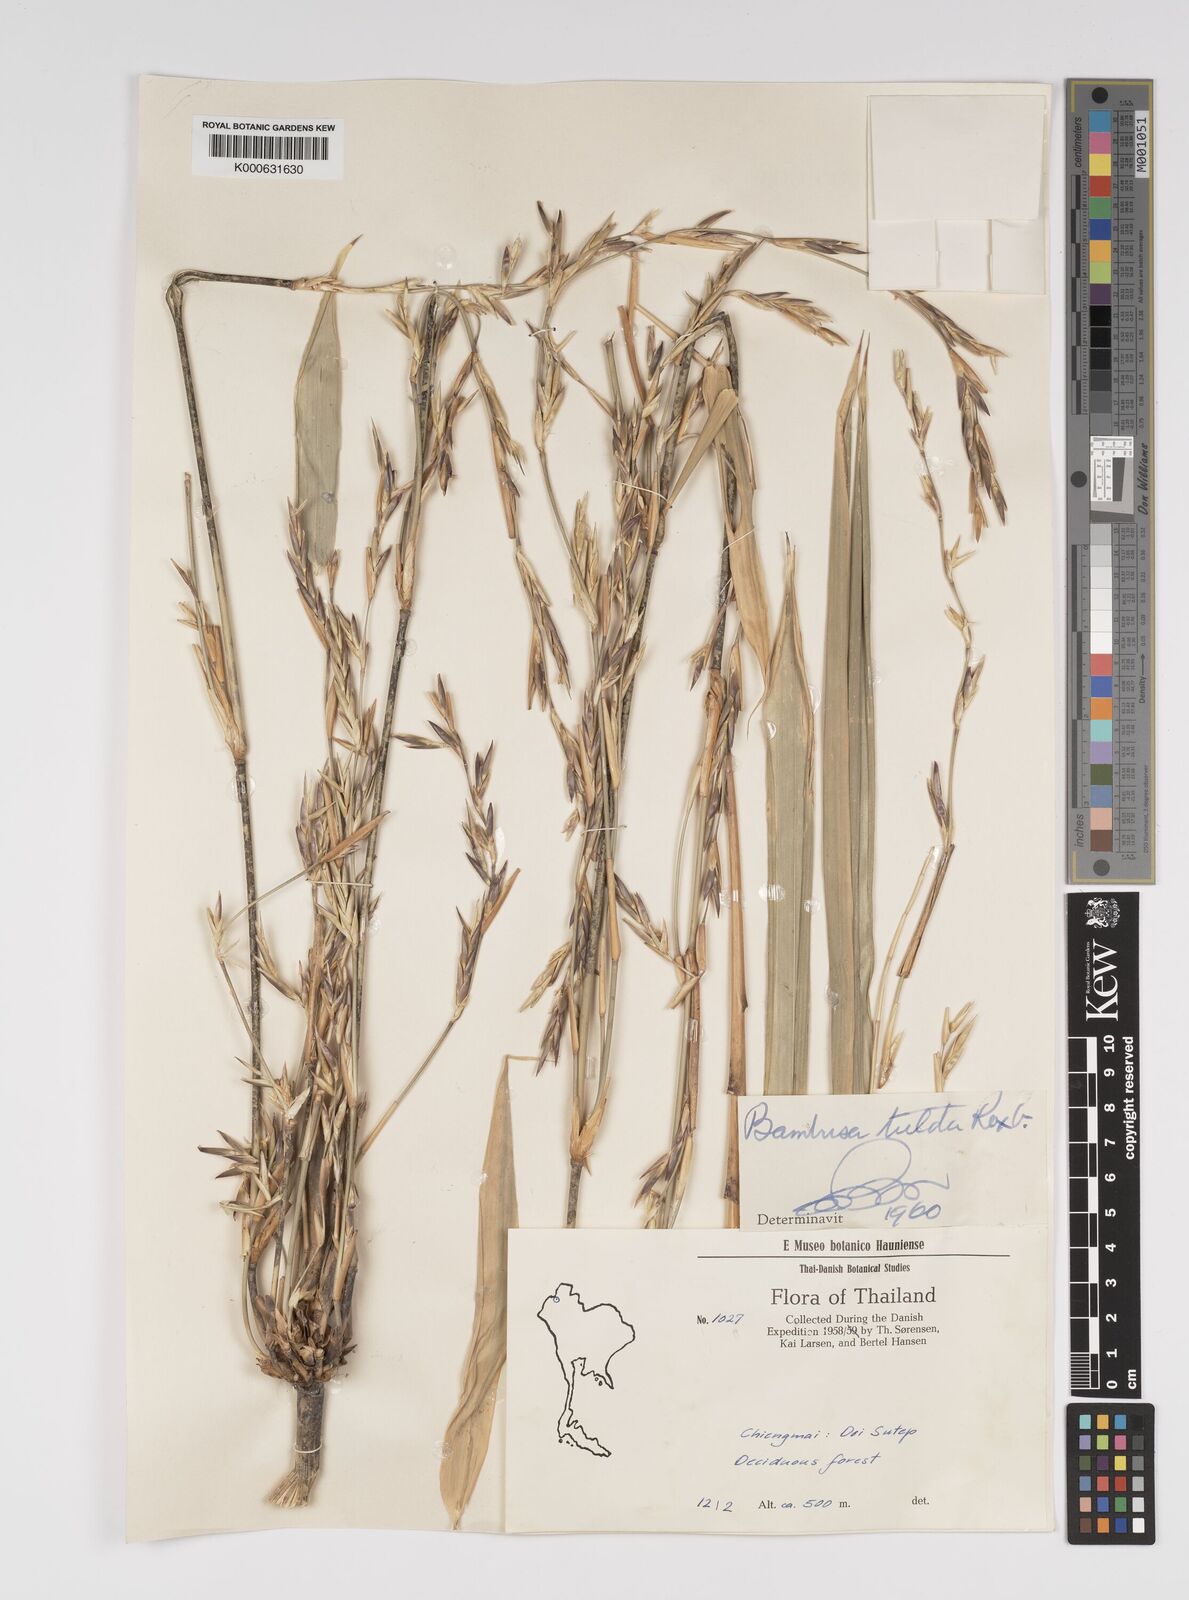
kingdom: Plantae
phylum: Tracheophyta
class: Liliopsida
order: Poales
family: Poaceae
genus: Bambusa
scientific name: Bambusa tulda
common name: Bengal bamboo
